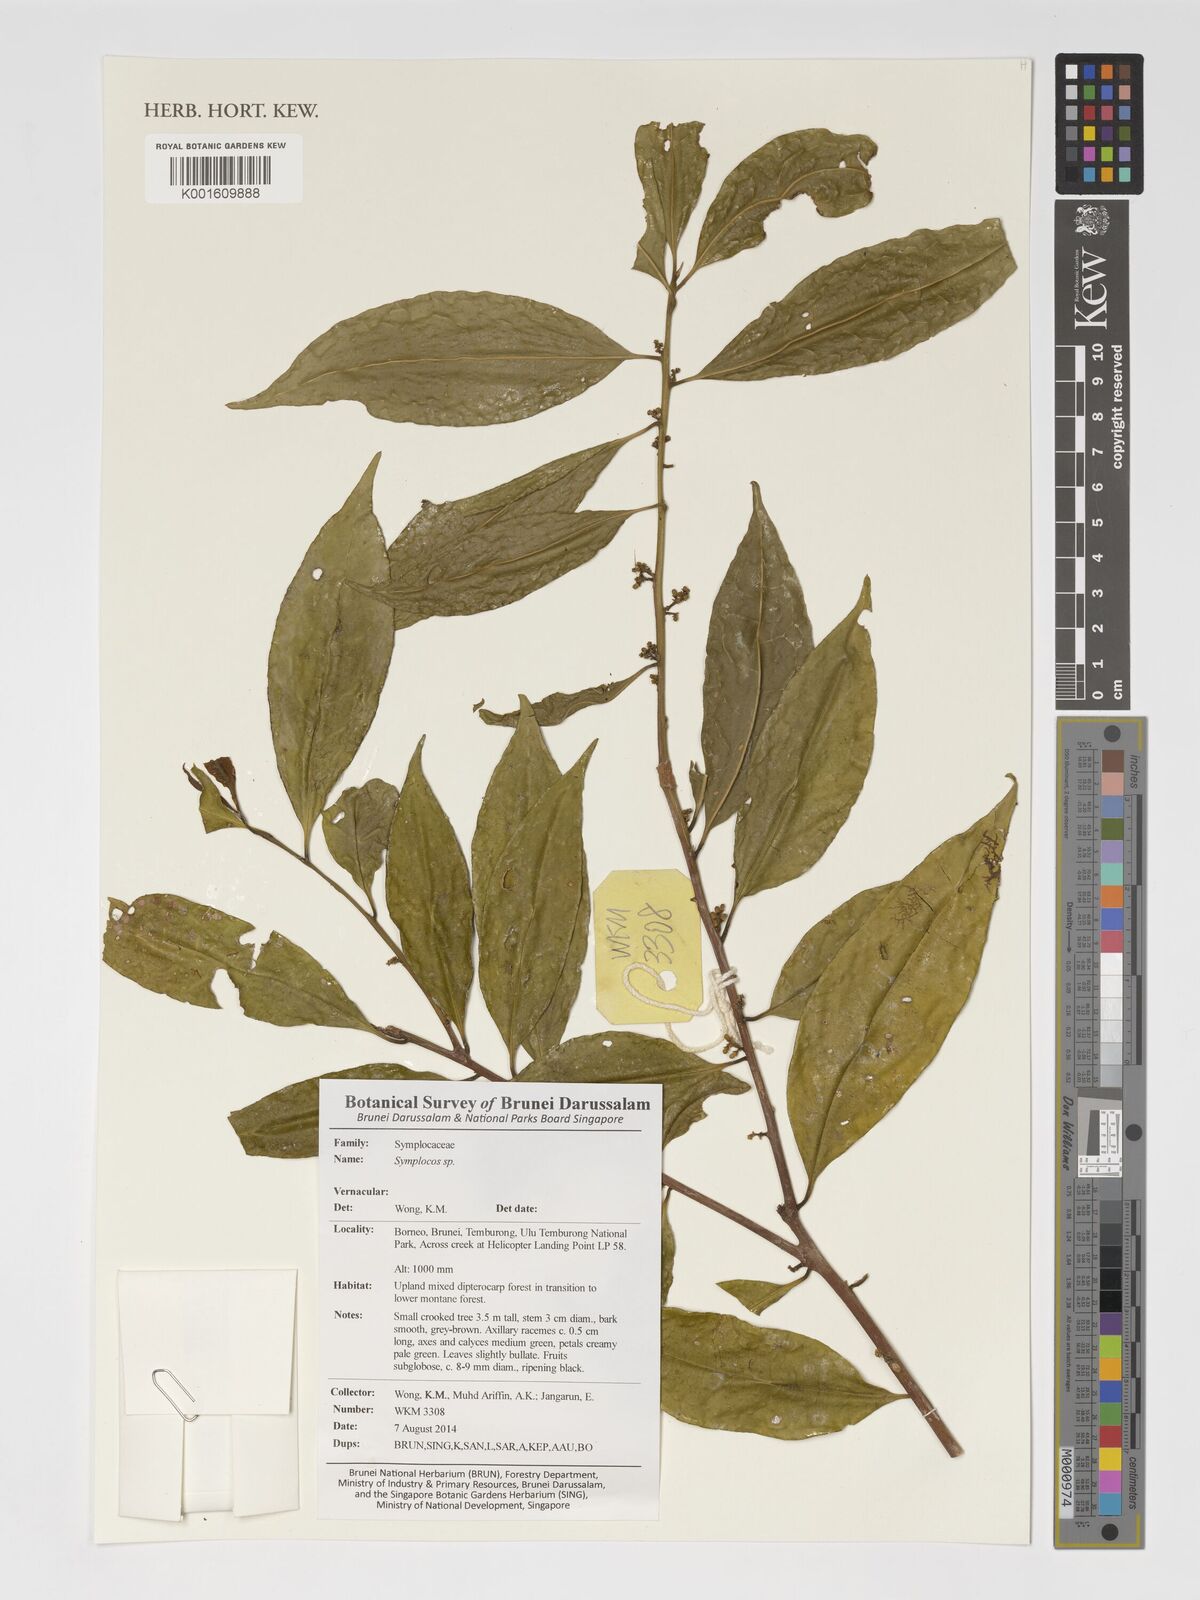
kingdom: Plantae
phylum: Tracheophyta
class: Magnoliopsida
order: Ericales
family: Symplocaceae
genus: Symplocos
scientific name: Symplocos
